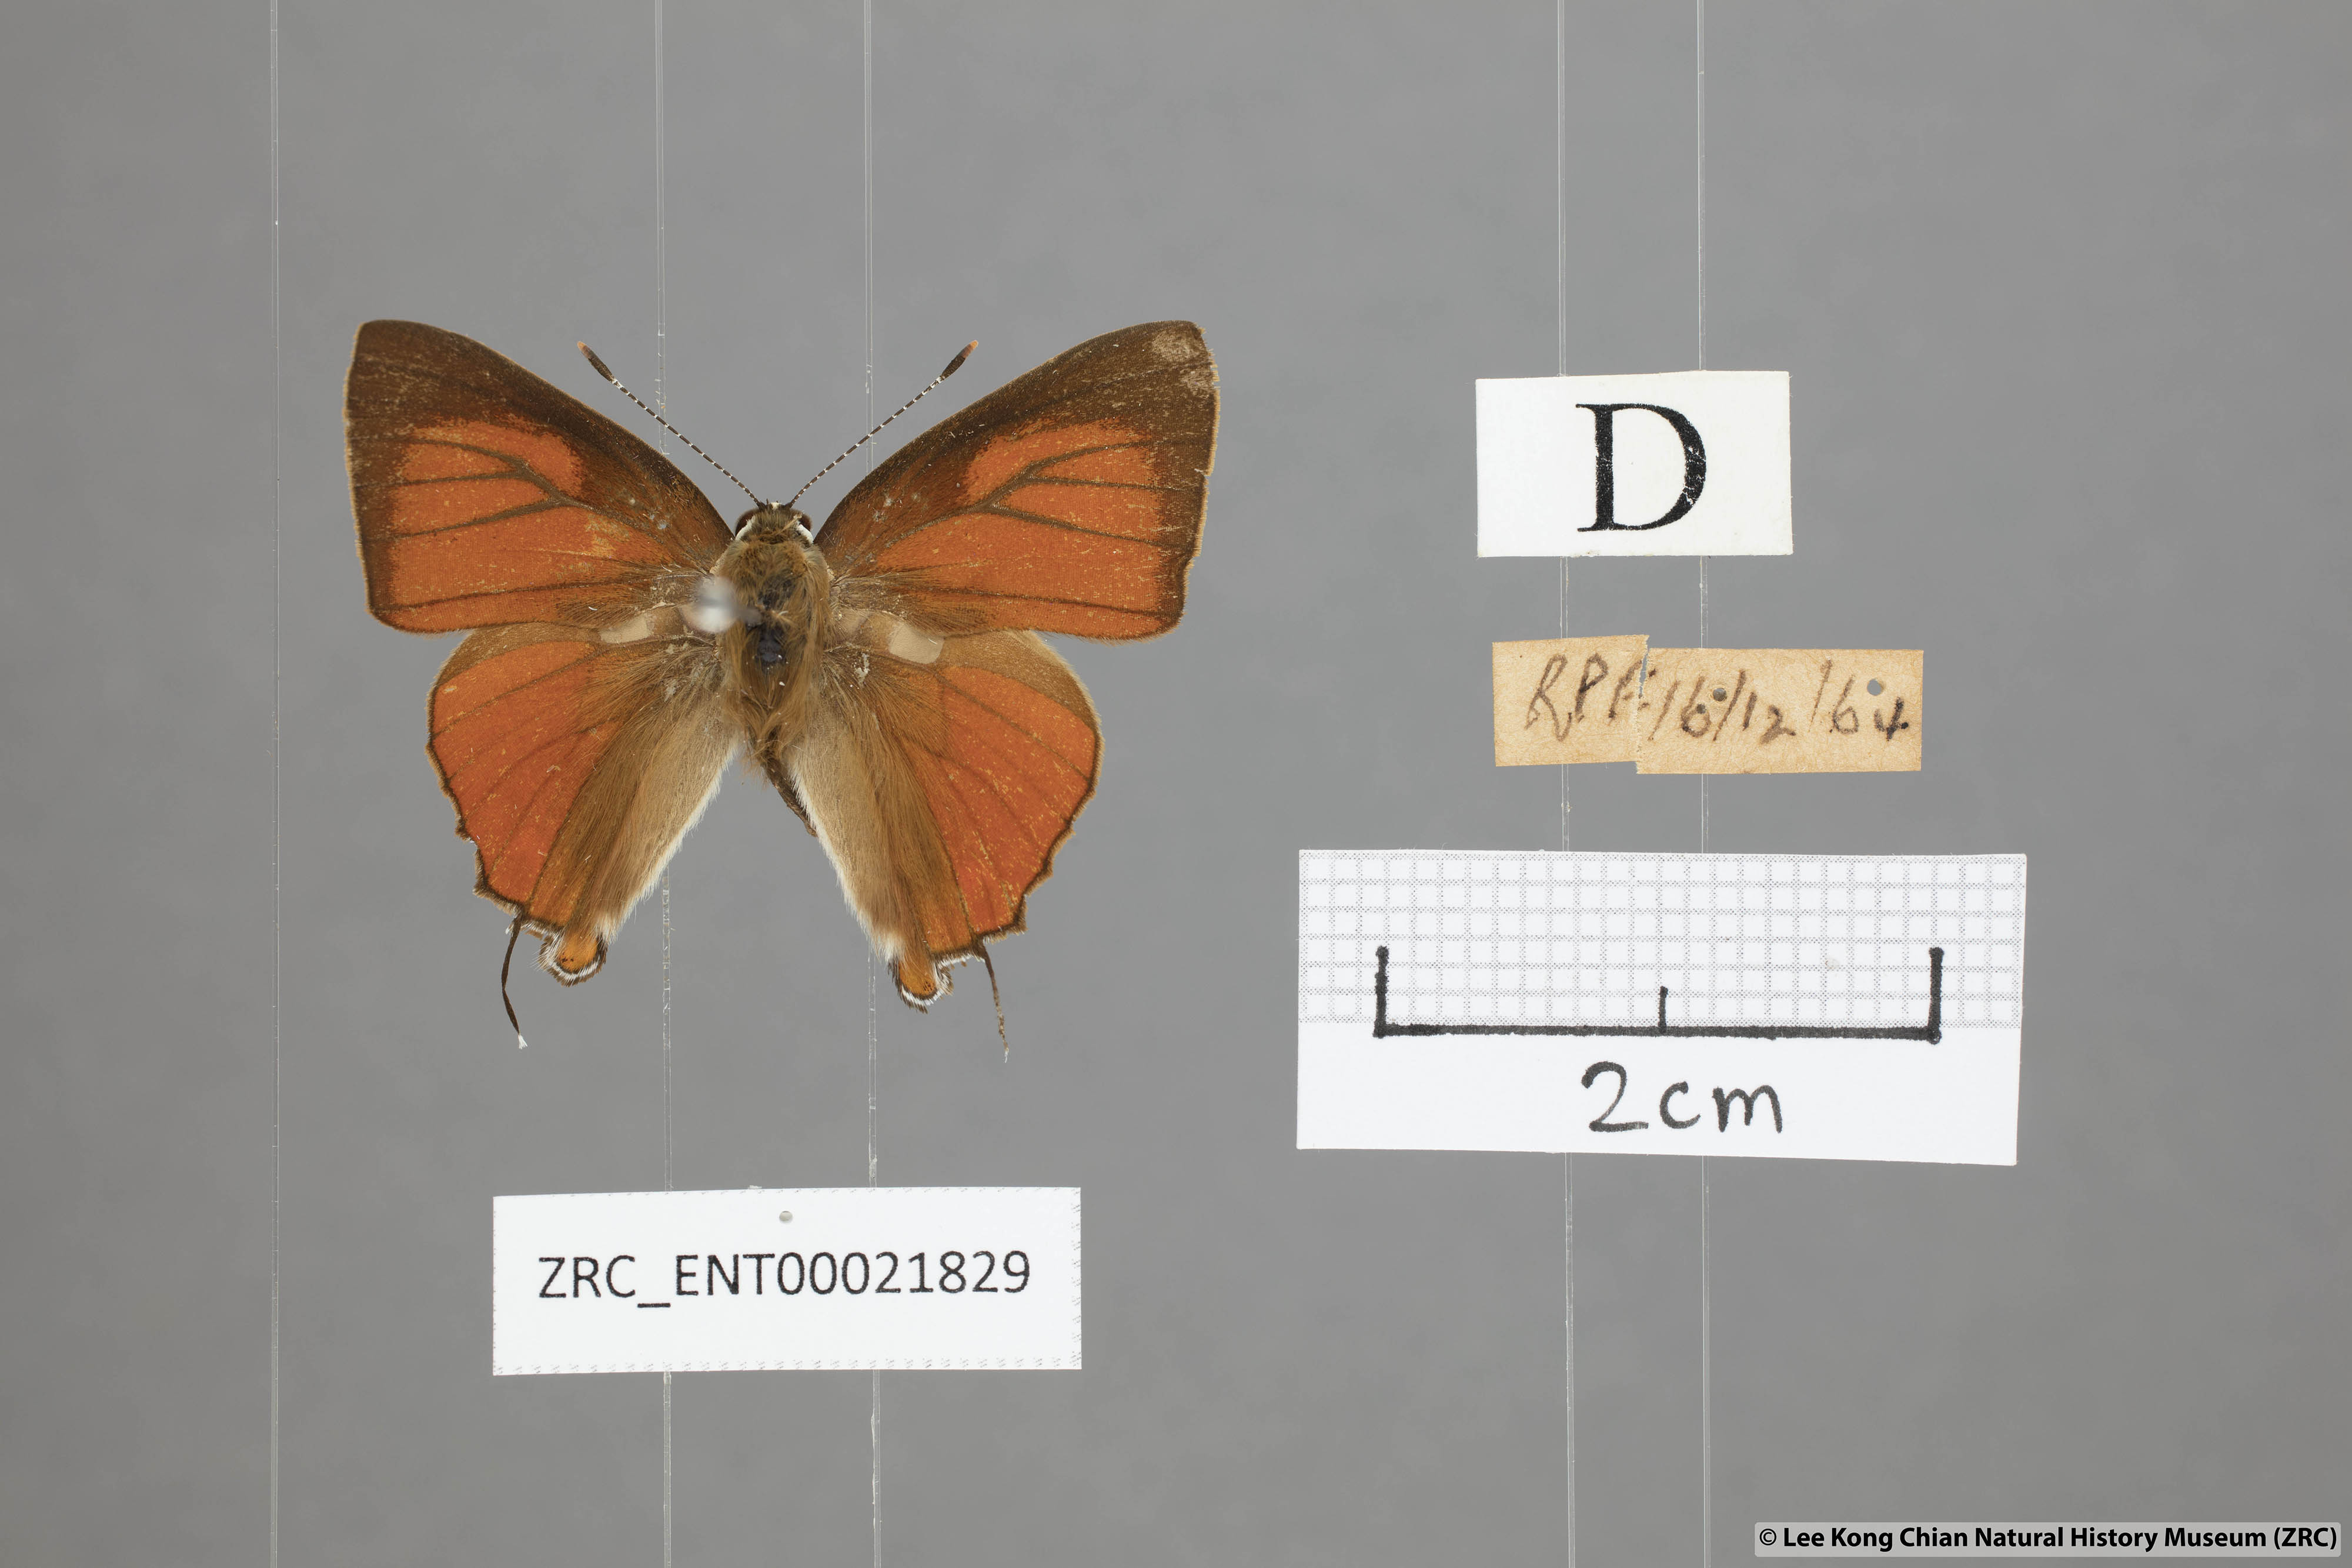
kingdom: Animalia
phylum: Arthropoda
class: Insecta
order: Lepidoptera
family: Lycaenidae
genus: Rapala
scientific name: Rapala iarbas
